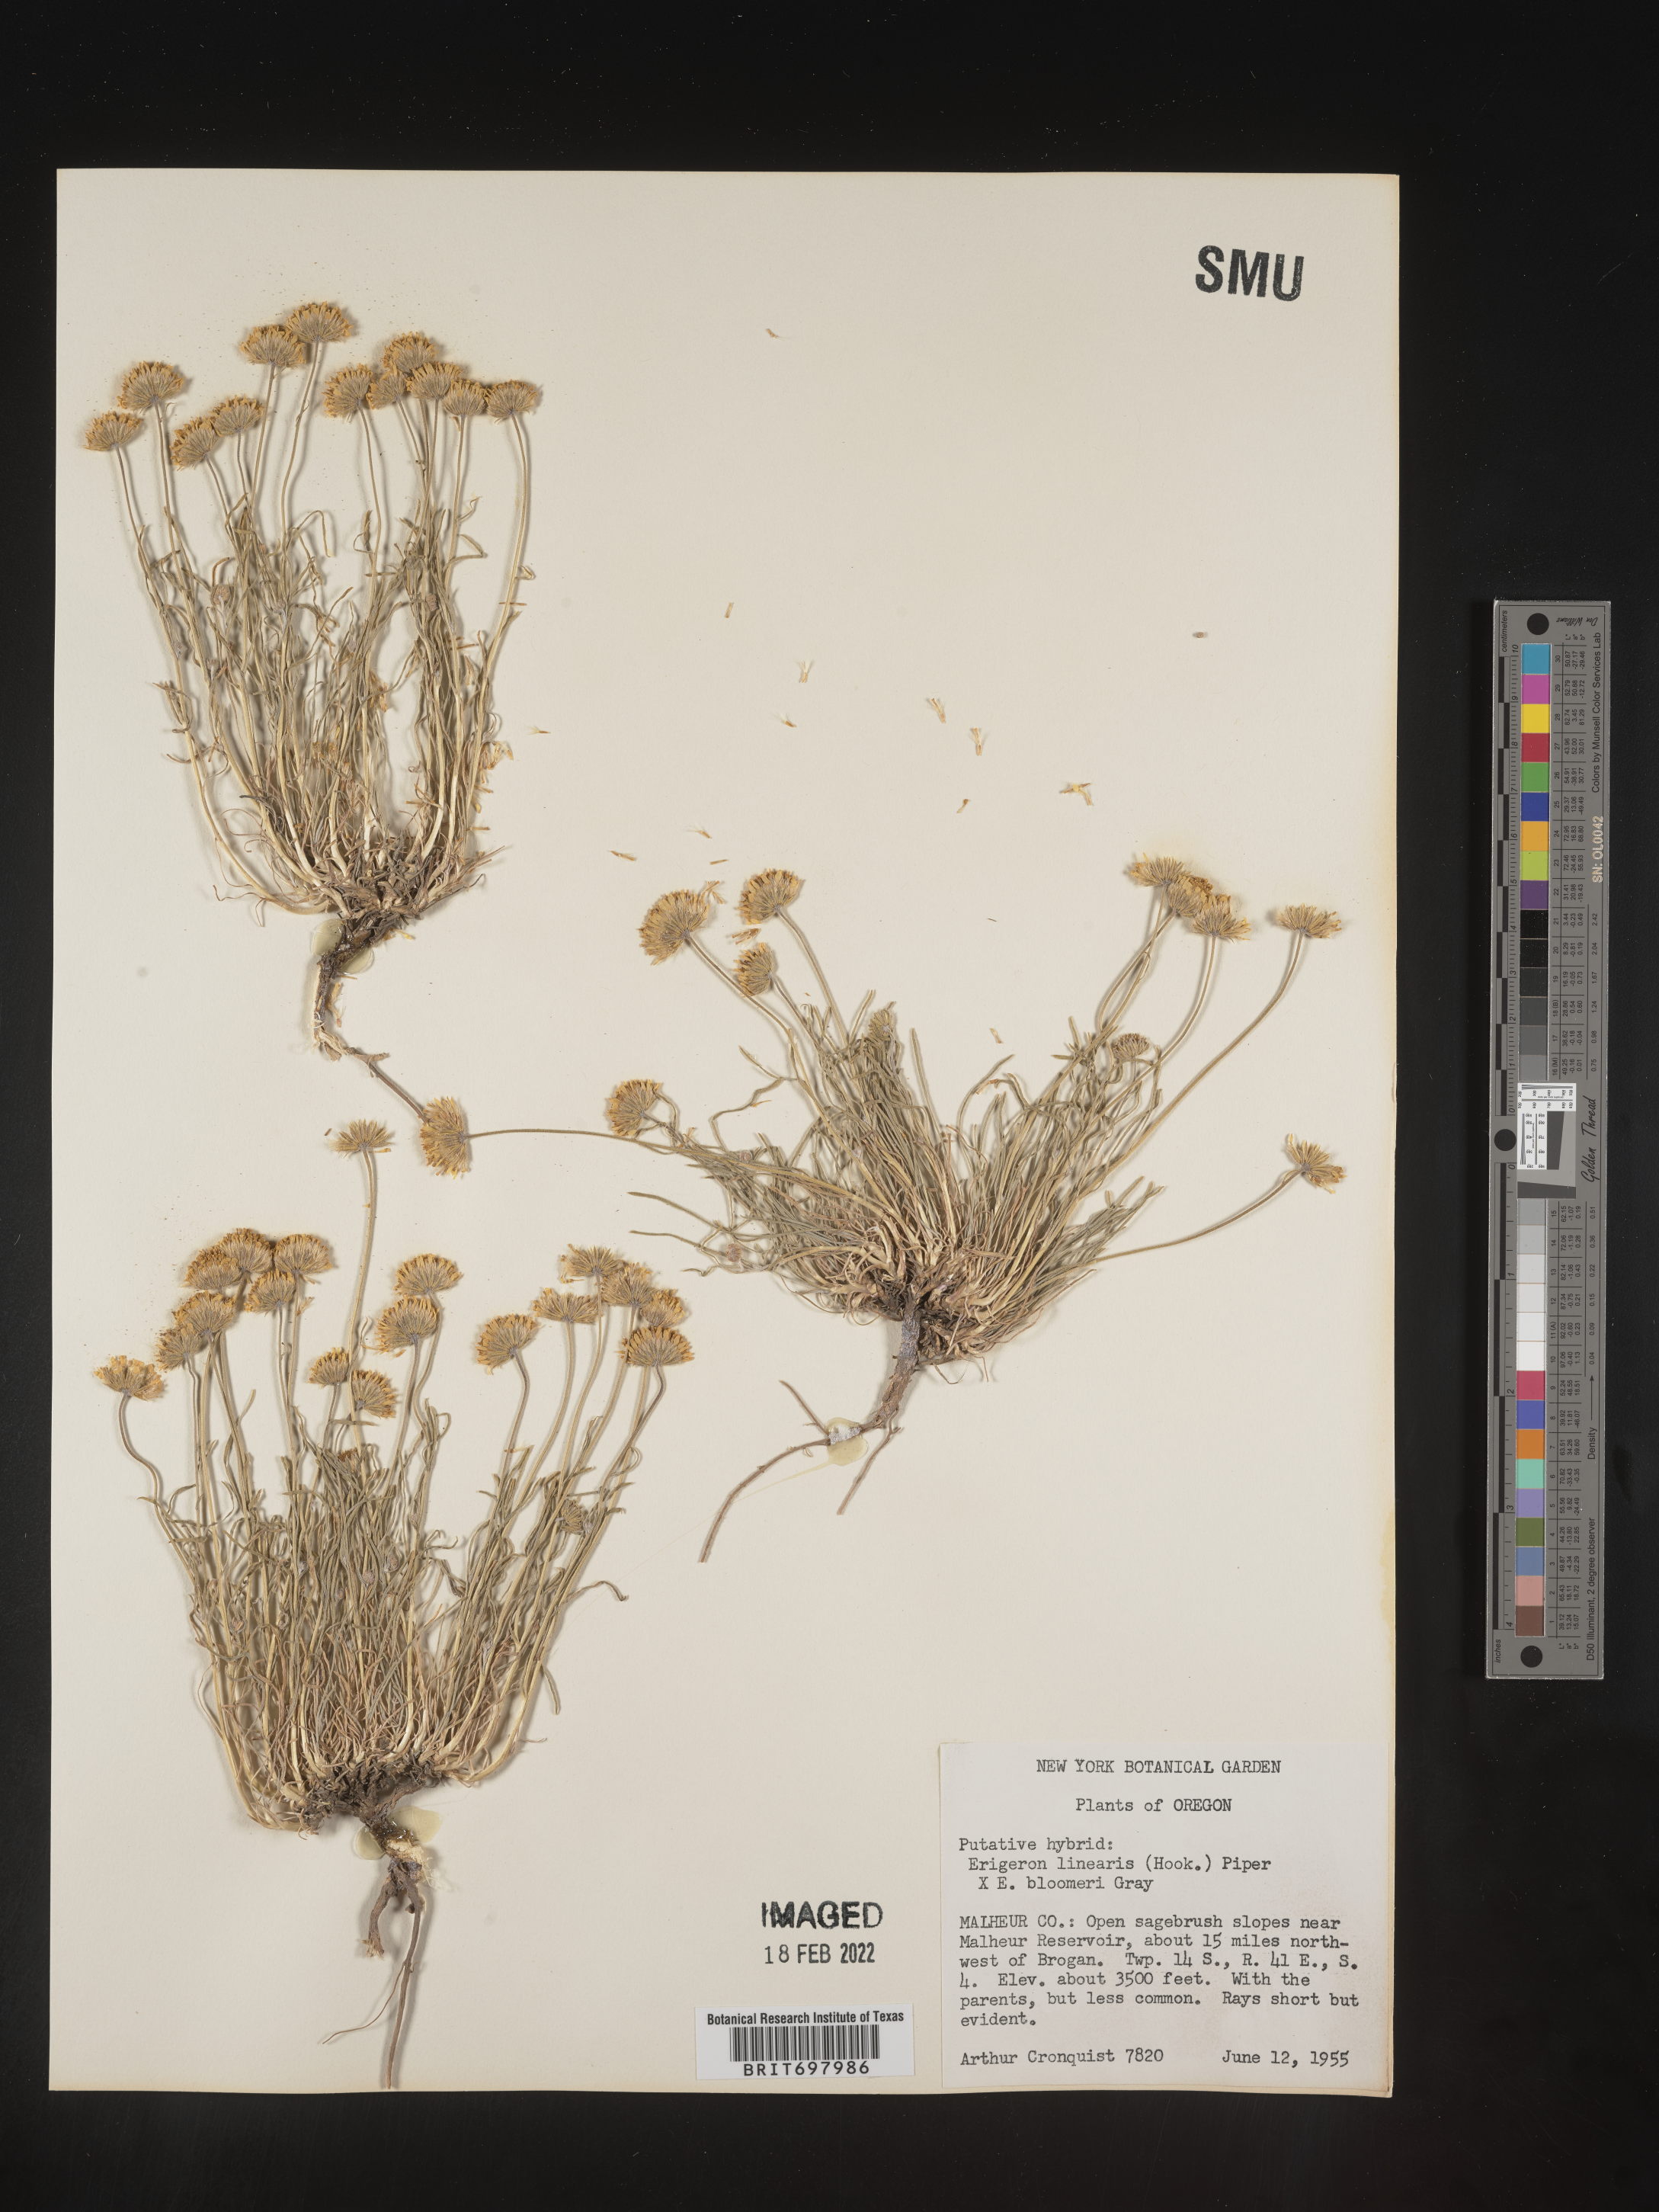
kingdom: Plantae
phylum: Tracheophyta
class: Magnoliopsida
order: Asterales
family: Asteraceae
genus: Erigeron
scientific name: Erigeron linearis
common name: Desert yellow fleabane
